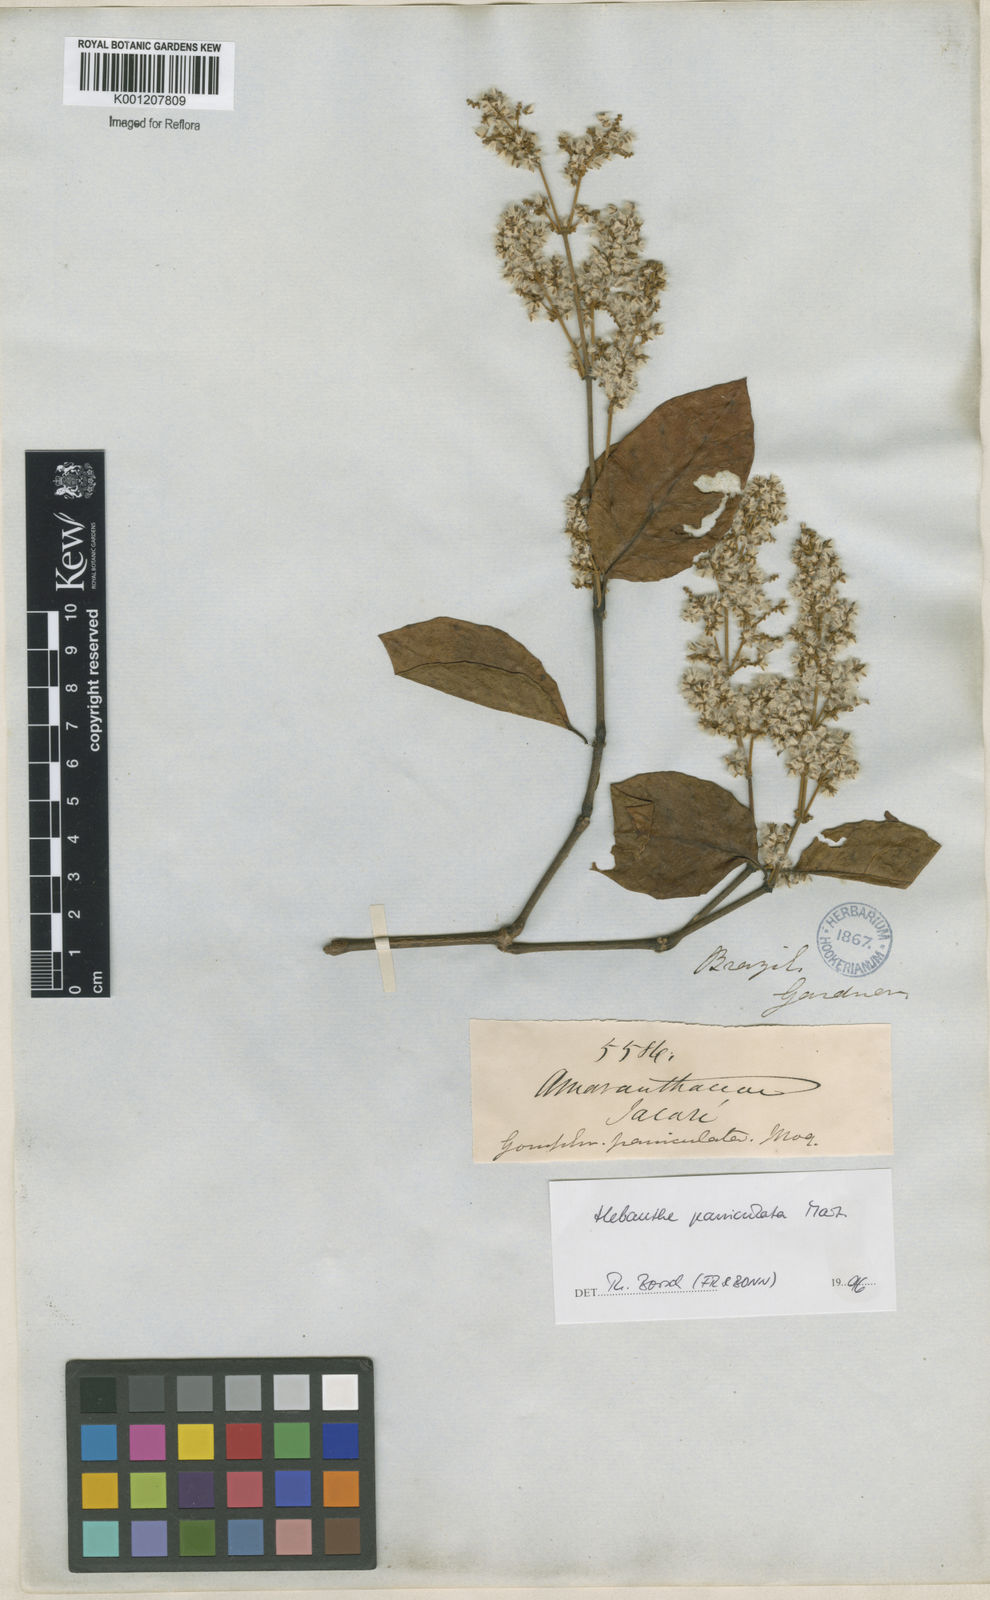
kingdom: Plantae
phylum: Tracheophyta
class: Magnoliopsida
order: Caryophyllales
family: Amaranthaceae
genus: Hebanthe
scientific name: Hebanthe erianthos
